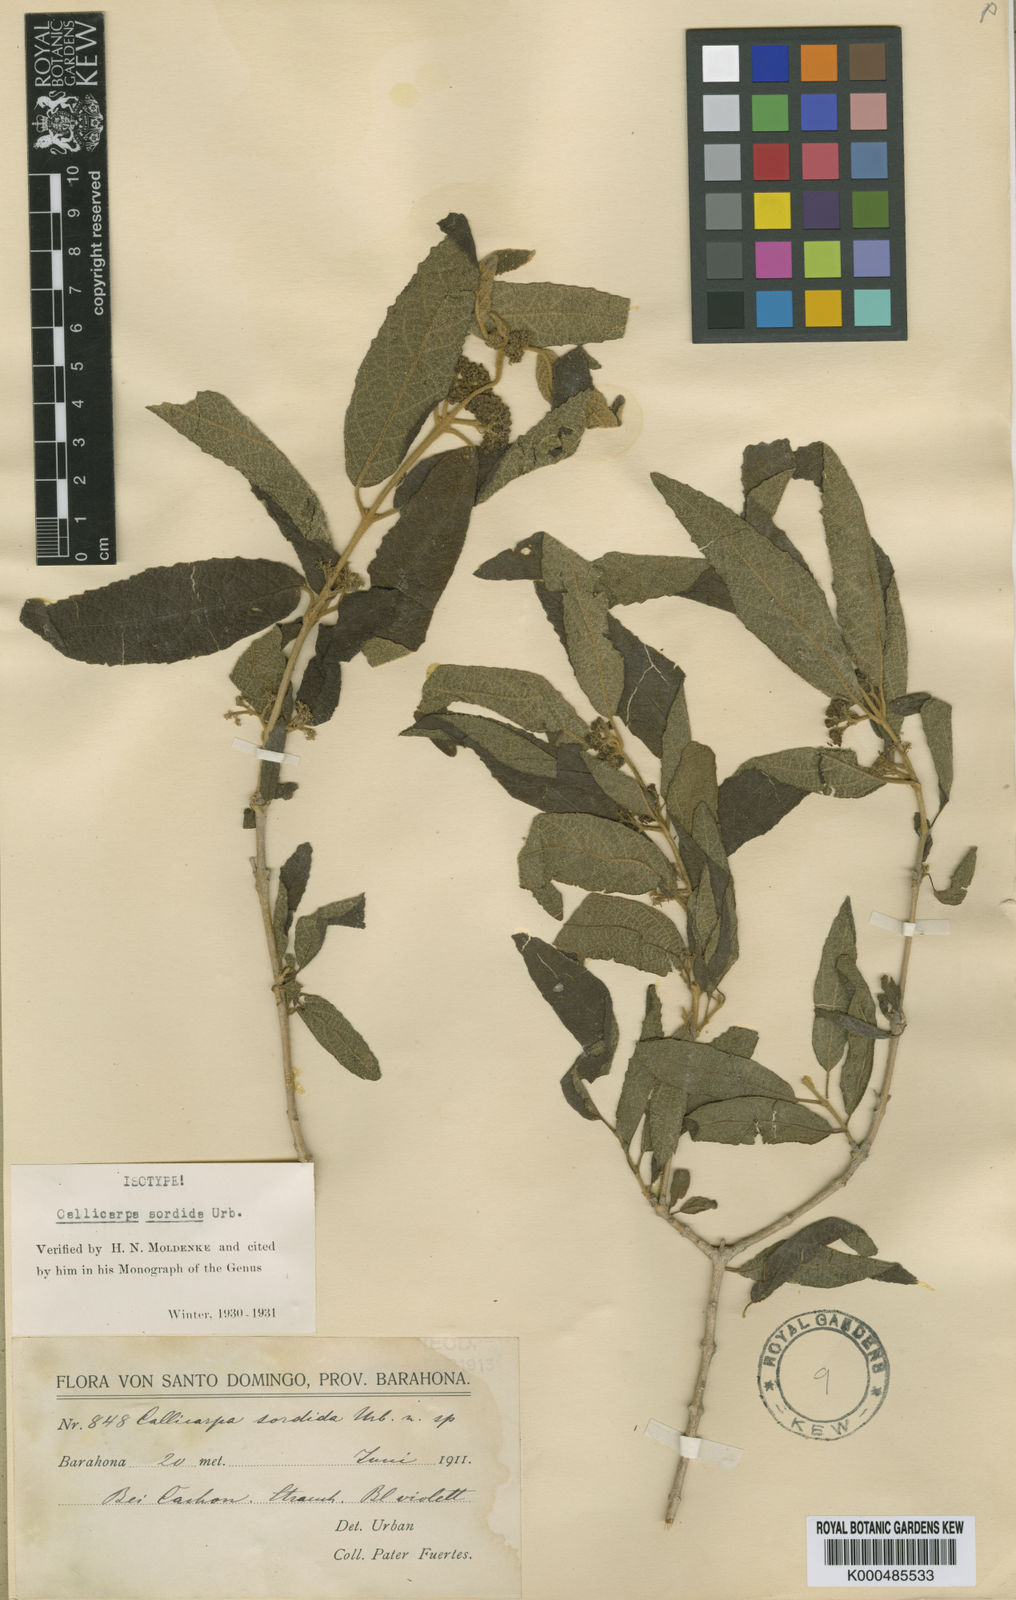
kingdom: Plantae
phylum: Tracheophyta
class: Magnoliopsida
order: Lamiales
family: Lamiaceae
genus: Callicarpa
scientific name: Callicarpa sordida
